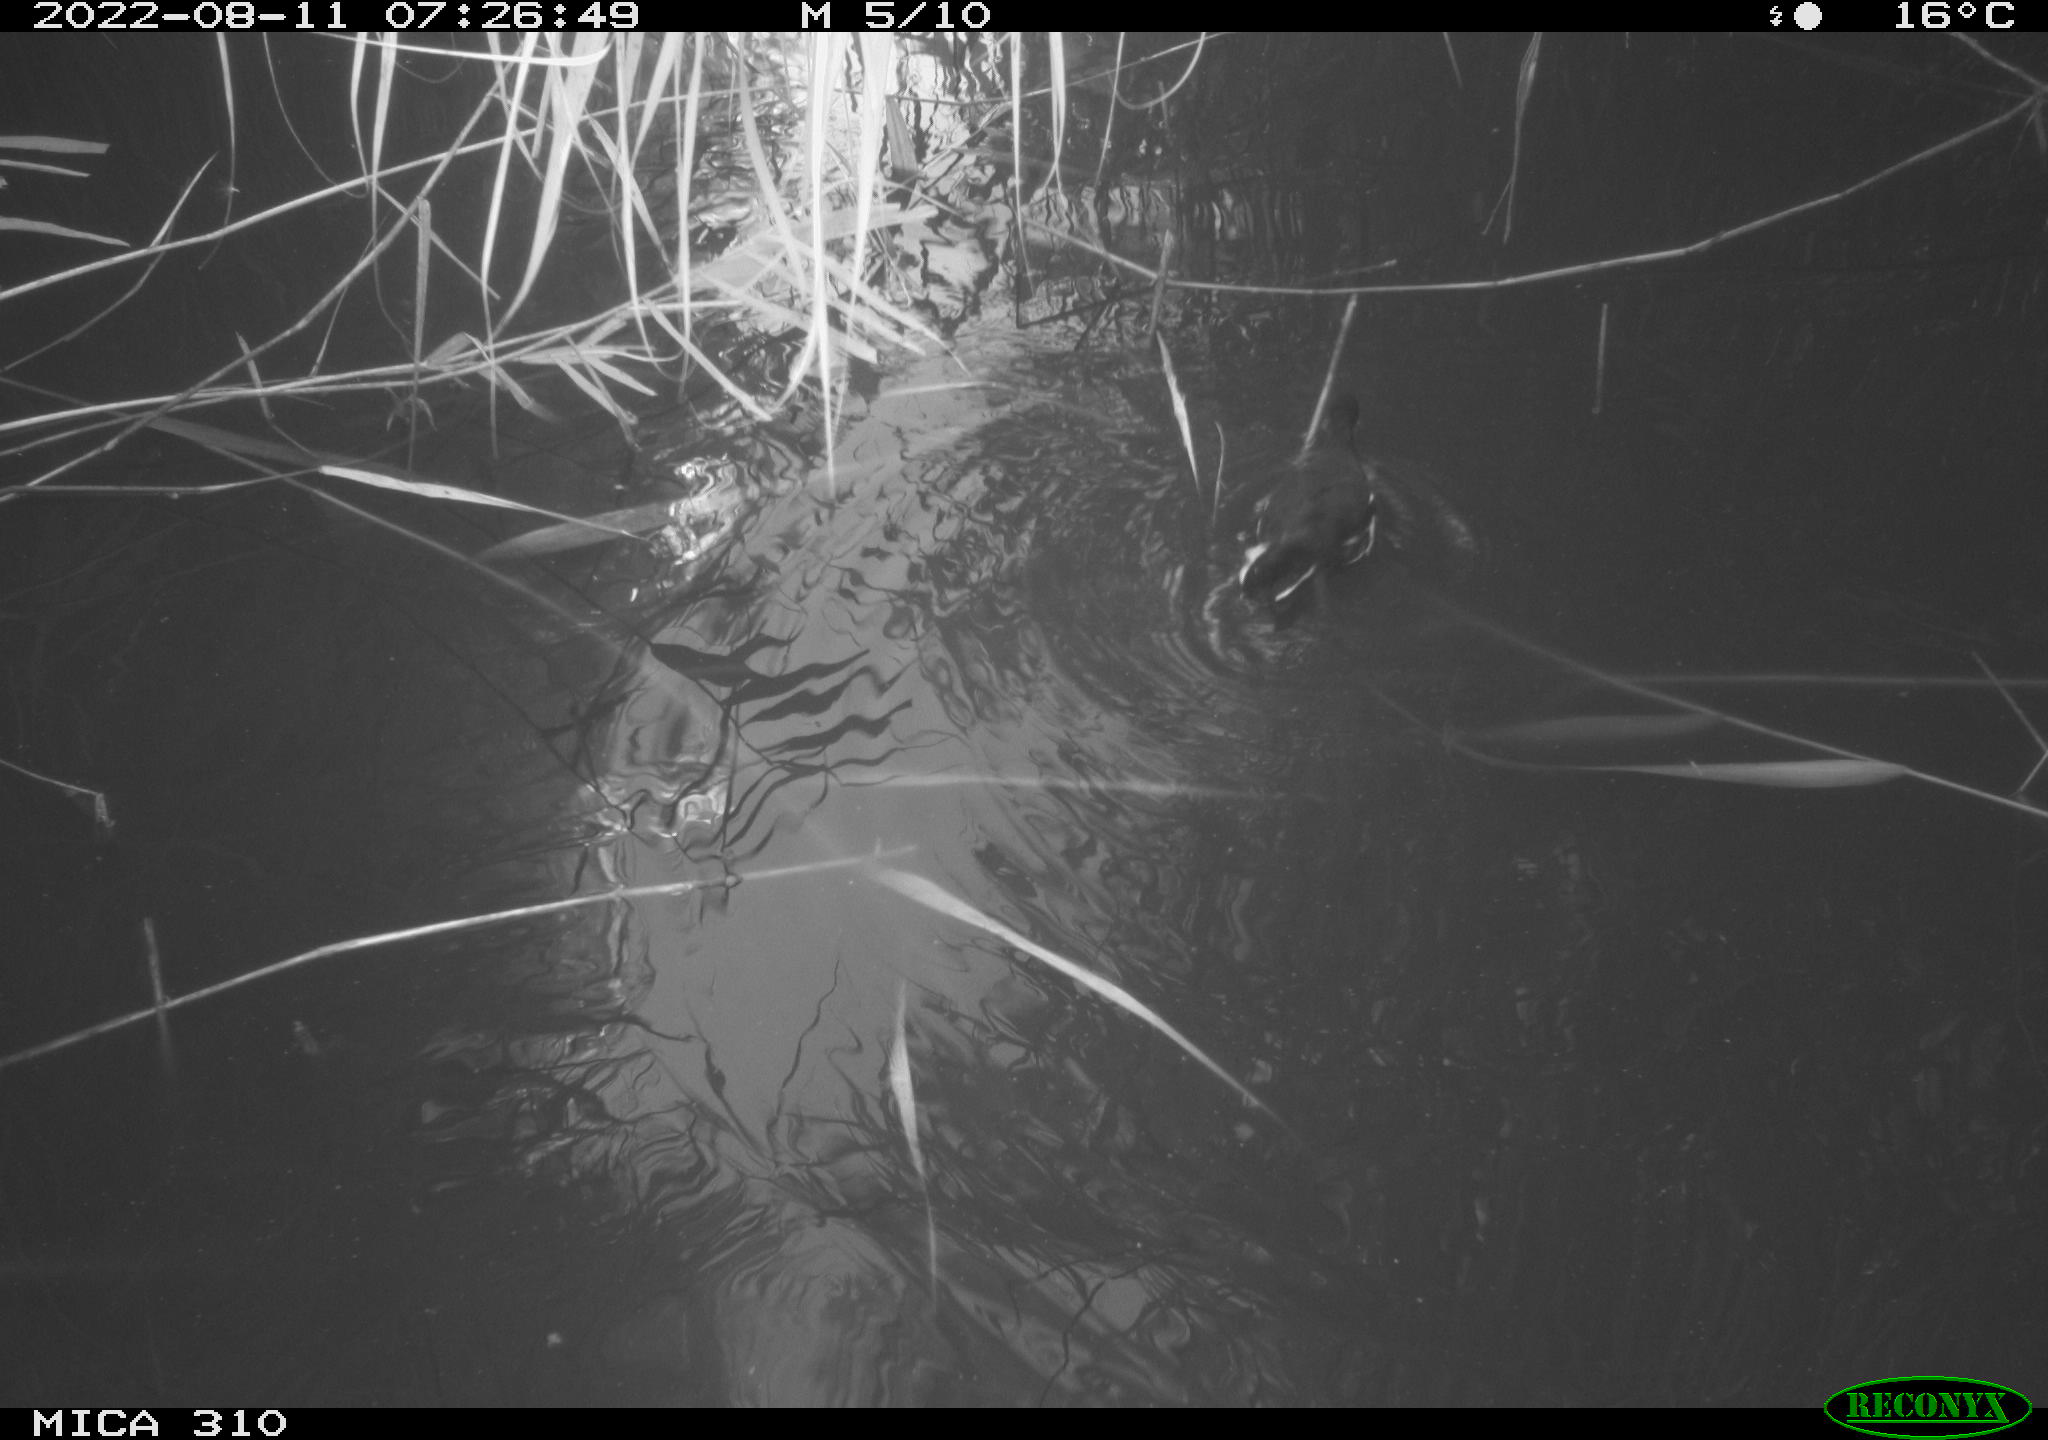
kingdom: Animalia
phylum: Chordata
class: Aves
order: Gruiformes
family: Rallidae
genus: Gallinula
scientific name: Gallinula chloropus
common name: Common moorhen
